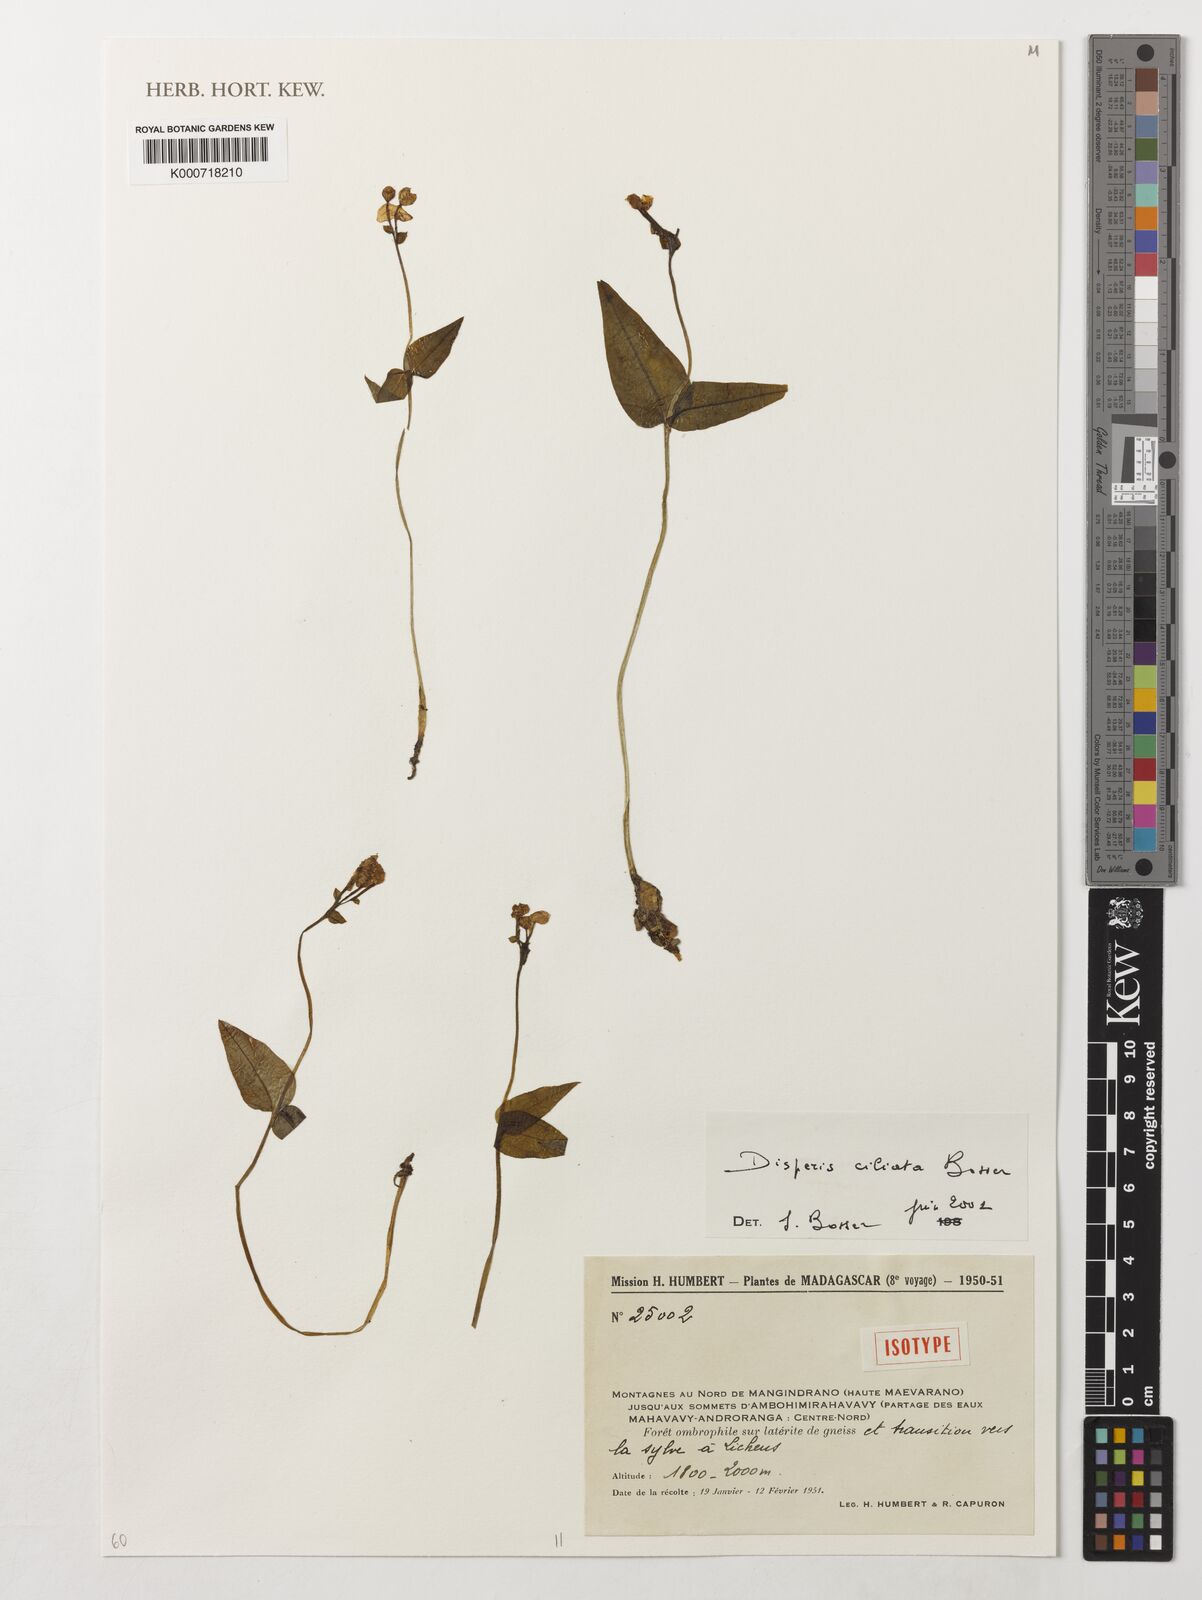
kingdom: Plantae
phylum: Tracheophyta
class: Liliopsida
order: Asparagales
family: Orchidaceae
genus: Disperis
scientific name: Disperis ciliata
